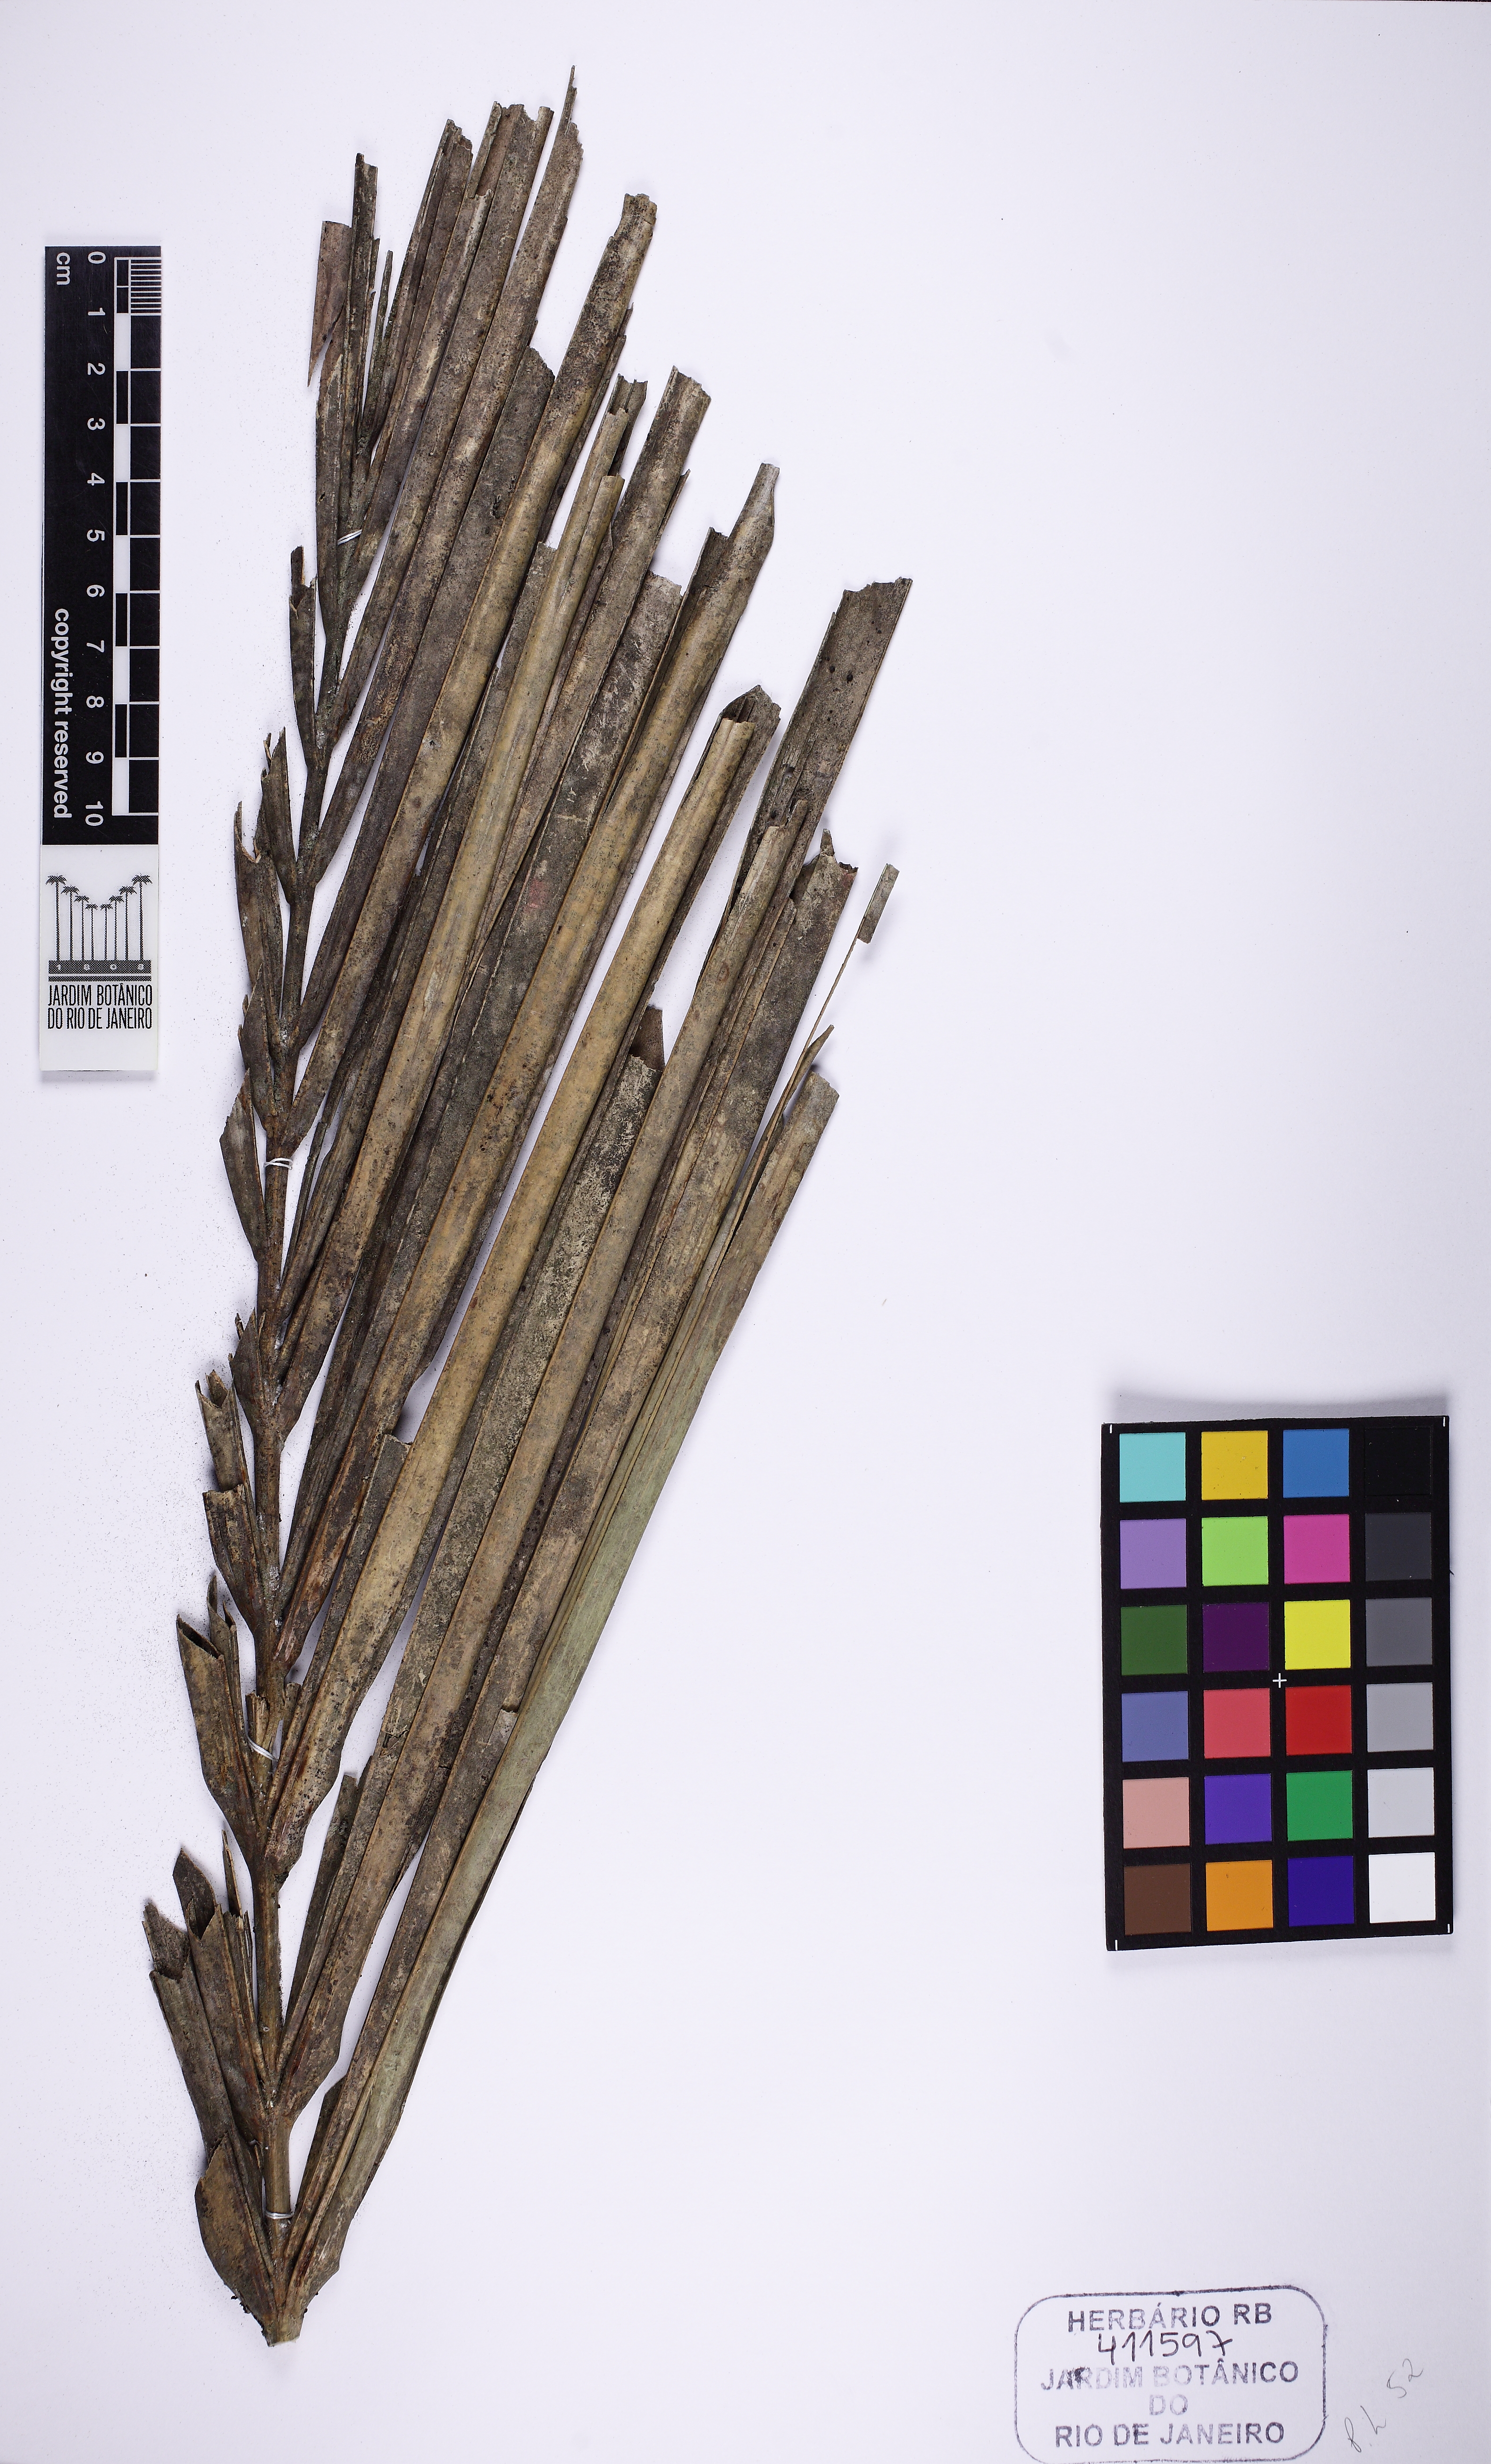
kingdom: Plantae
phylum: Tracheophyta
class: Liliopsida
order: Arecales
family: Arecaceae
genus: Attalea
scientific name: Attalea dubia
